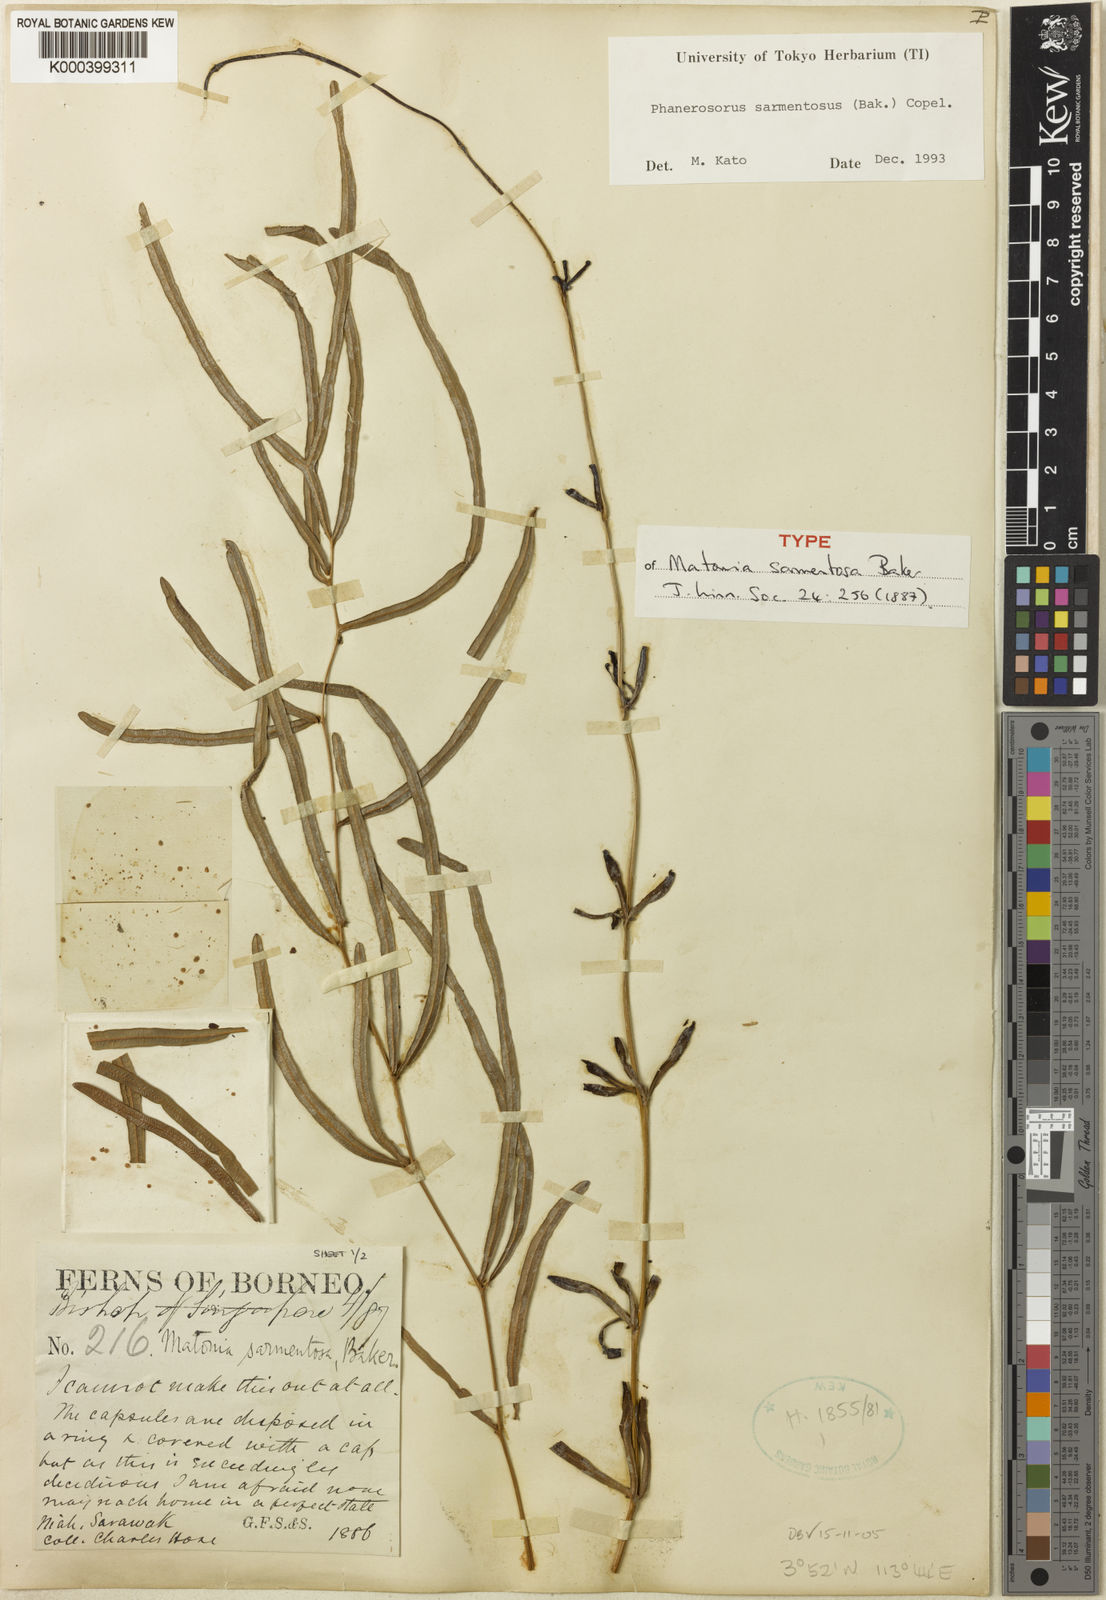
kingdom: Plantae
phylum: Tracheophyta
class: Polypodiopsida
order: Gleicheniales
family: Matoniaceae
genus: Phanerosorus
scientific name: Phanerosorus sarmentosus
